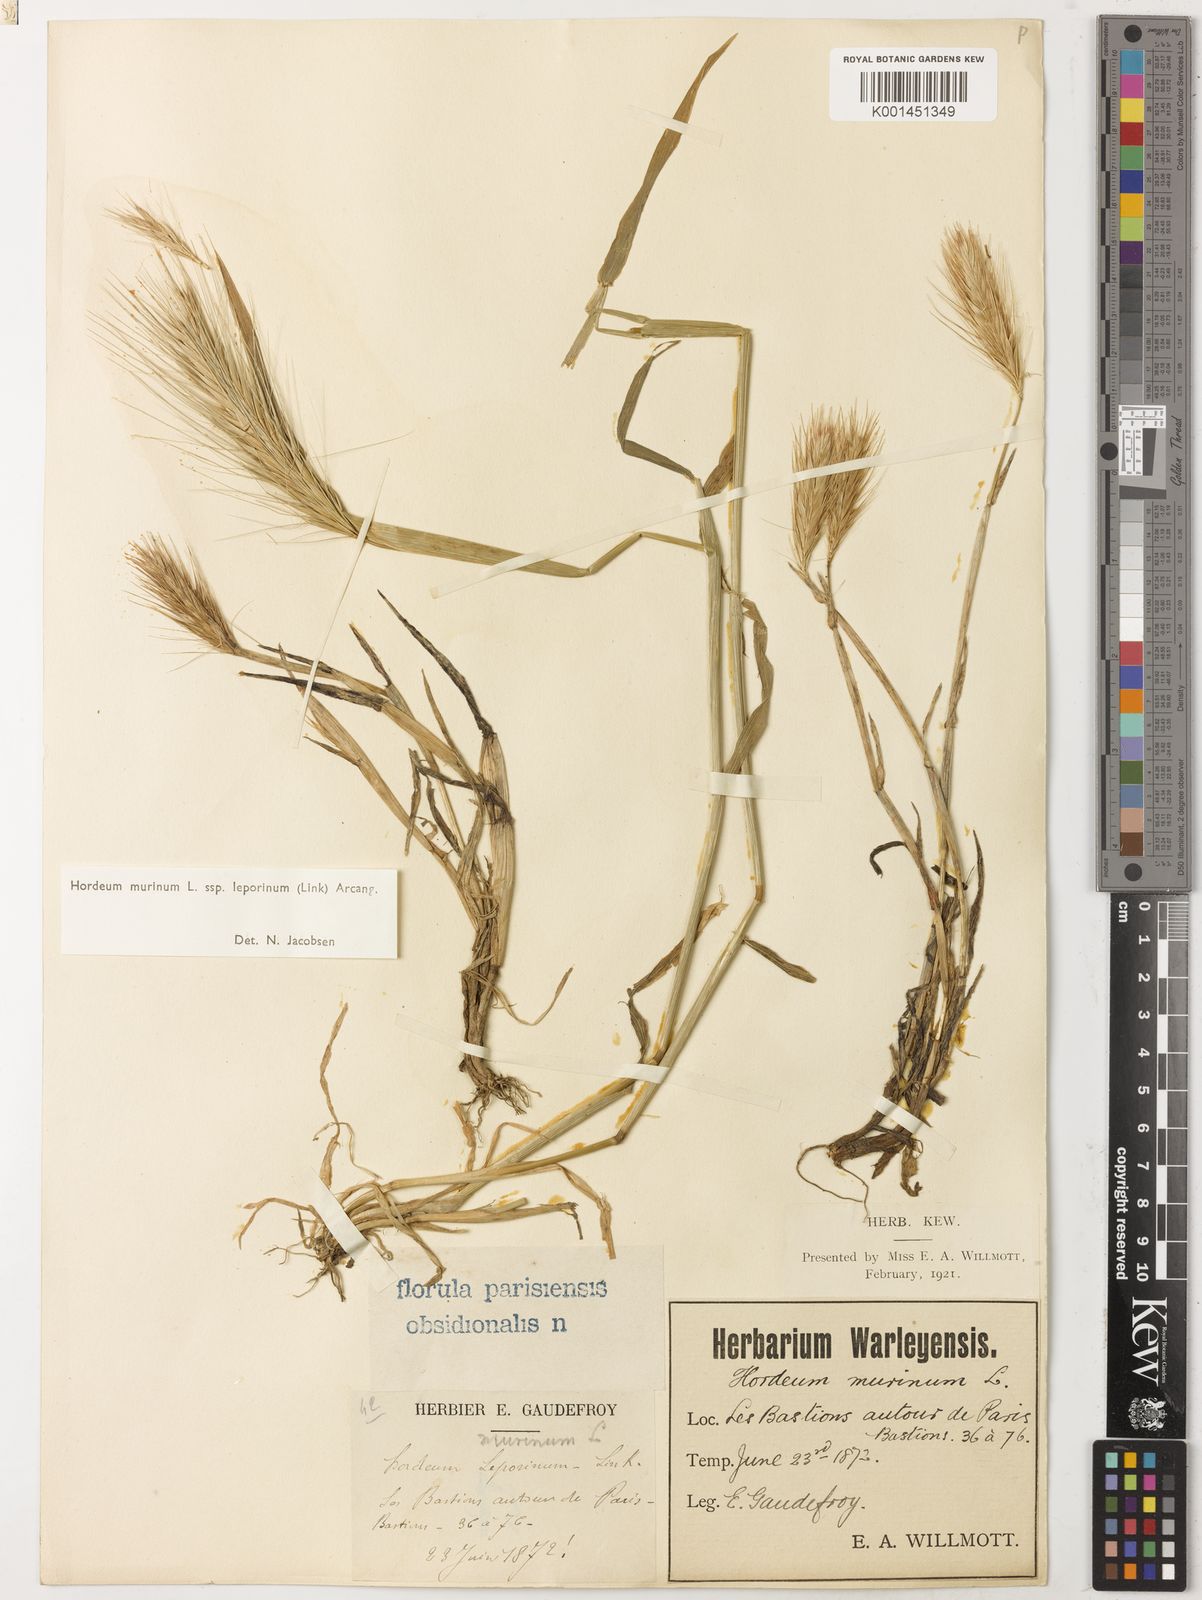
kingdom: Plantae
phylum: Tracheophyta
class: Liliopsida
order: Poales
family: Poaceae
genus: Hordeum
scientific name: Hordeum murinum
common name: Wall barley
